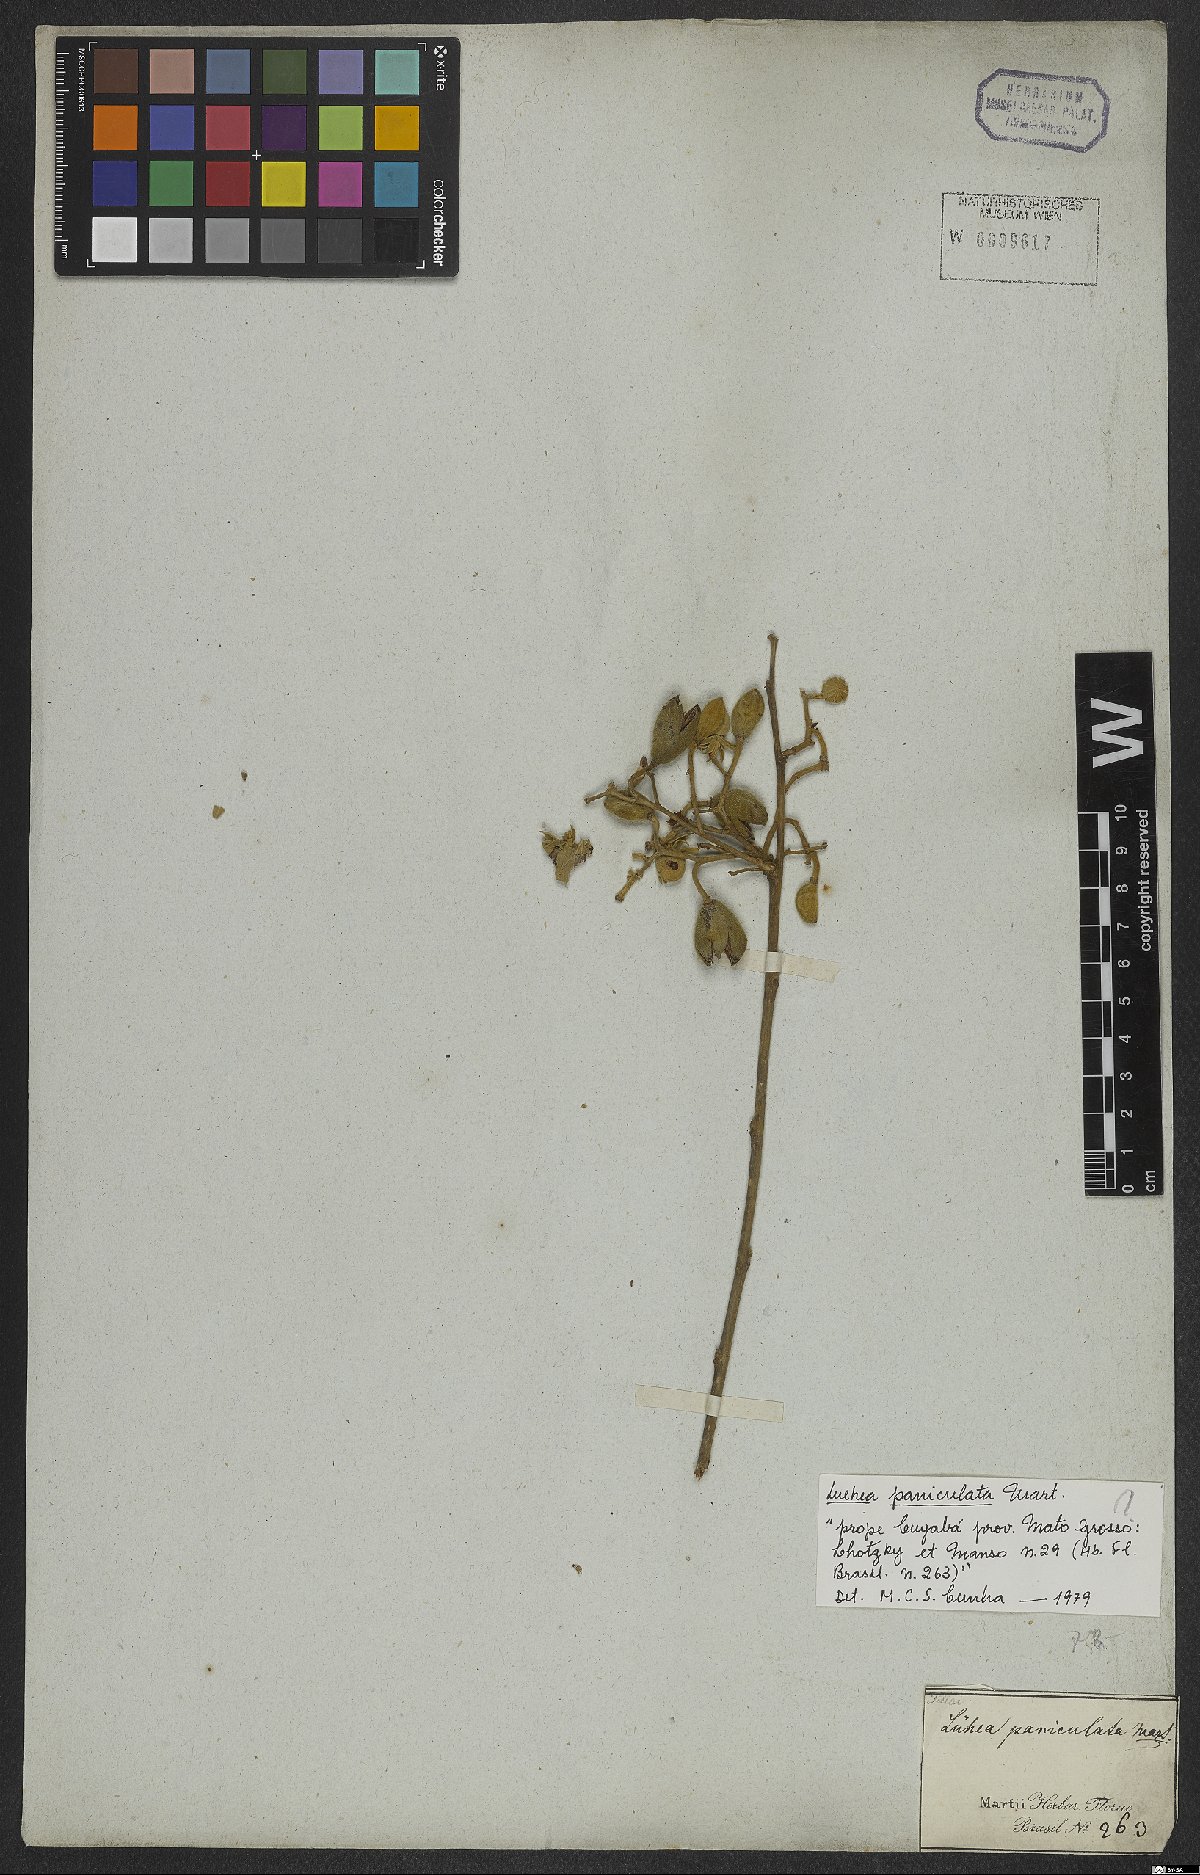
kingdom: Plantae
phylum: Tracheophyta
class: Magnoliopsida
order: Malvales
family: Malvaceae
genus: Luehea
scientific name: Luehea paniculata
